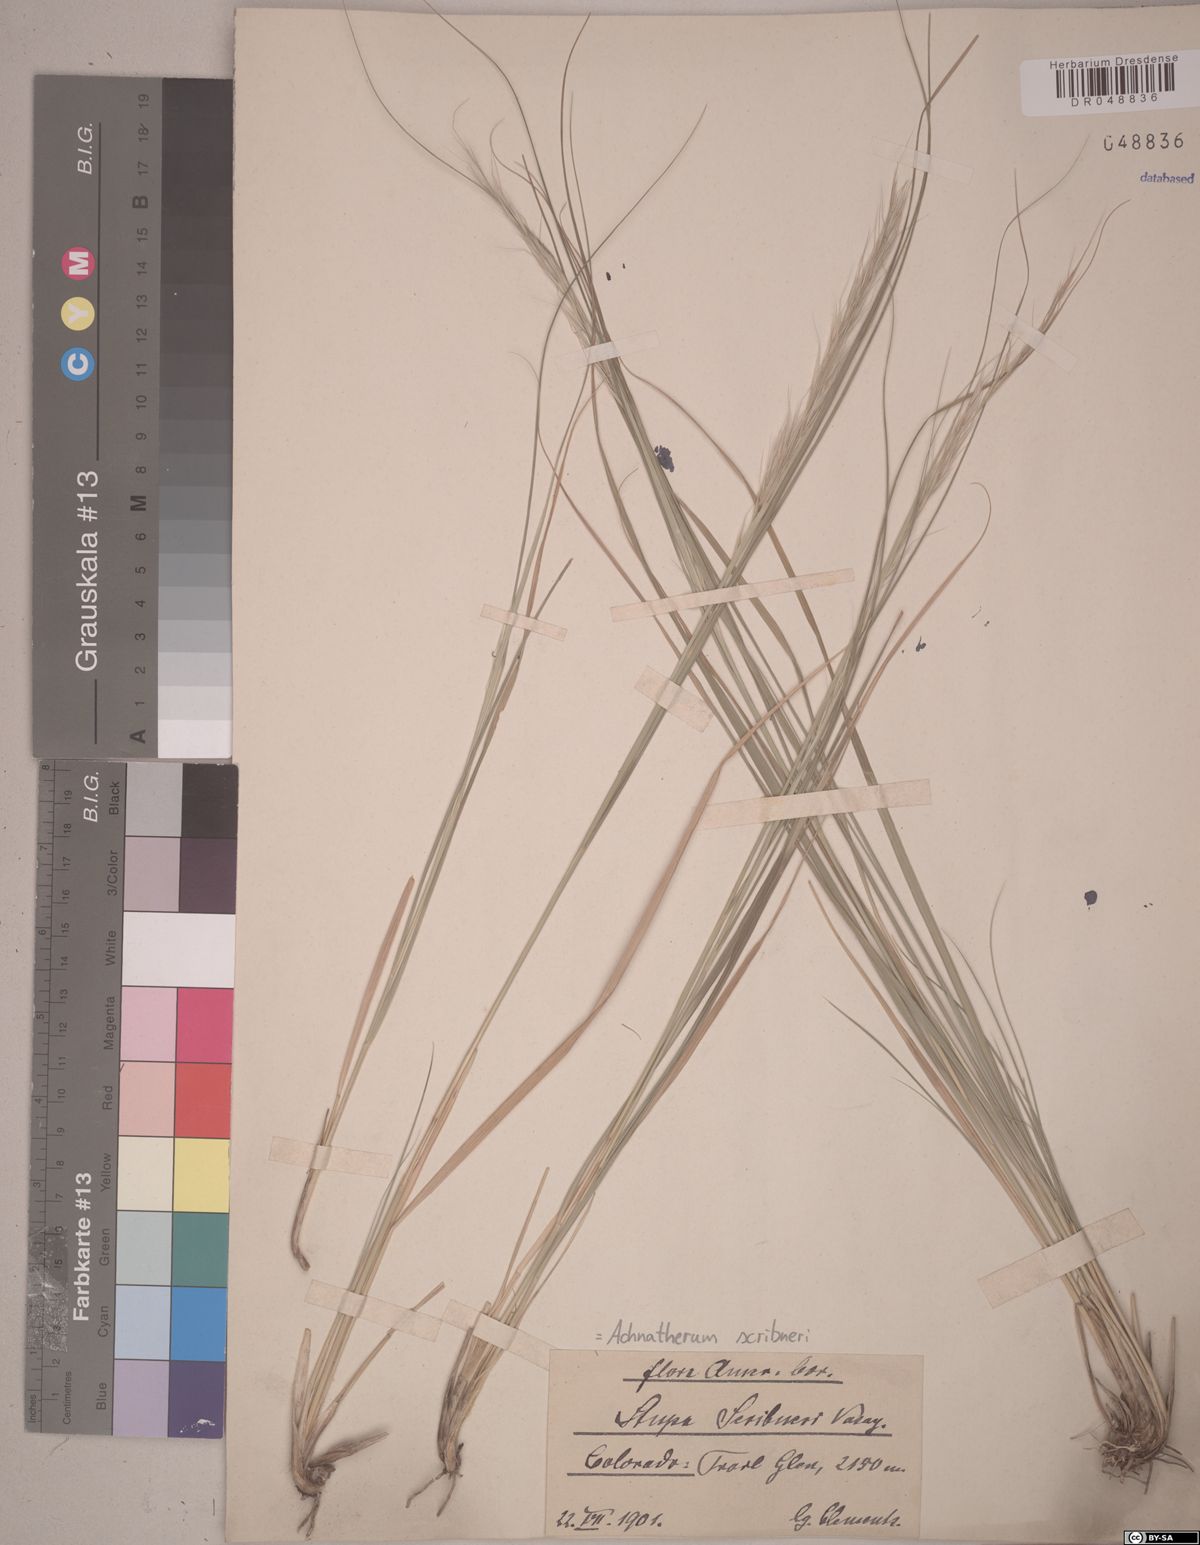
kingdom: Plantae
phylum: Tracheophyta
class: Liliopsida
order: Poales
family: Poaceae
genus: Eriocoma
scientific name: Eriocoma scribneri
